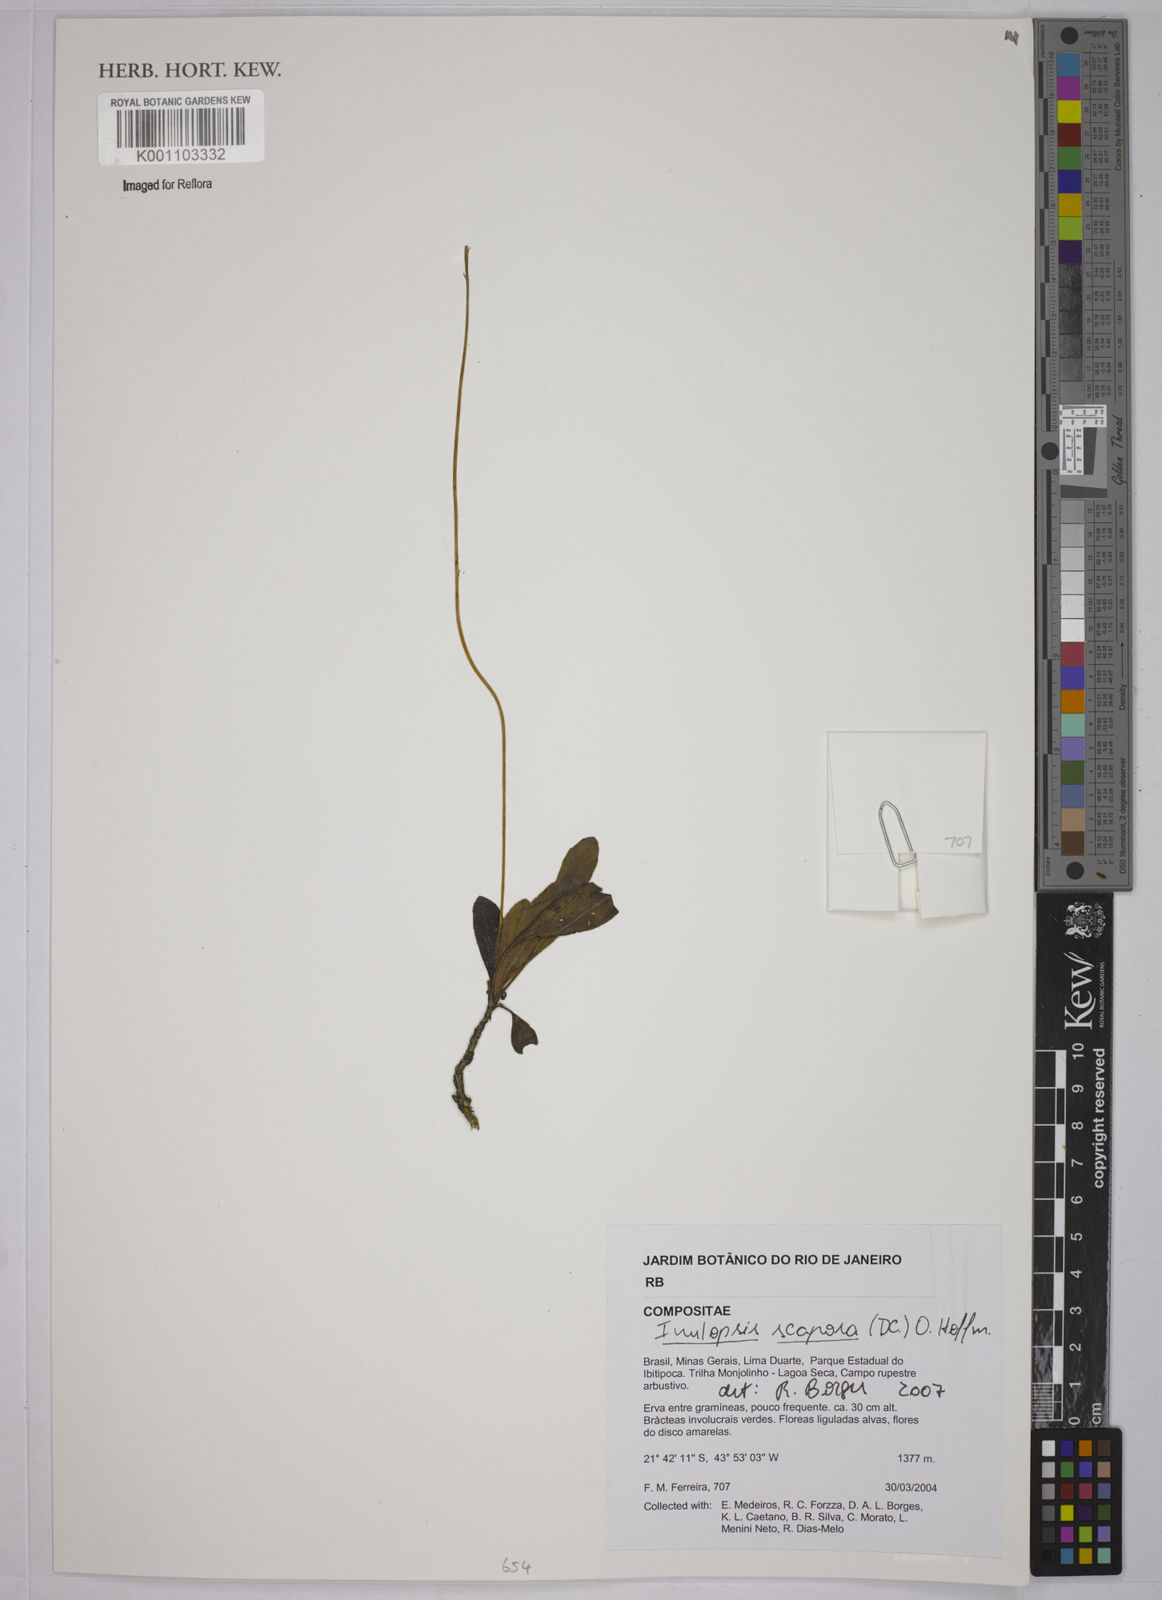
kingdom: Plantae
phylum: Tracheophyta
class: Magnoliopsida
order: Asterales
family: Asteraceae
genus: Inulopsis
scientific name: Inulopsis scaposa
